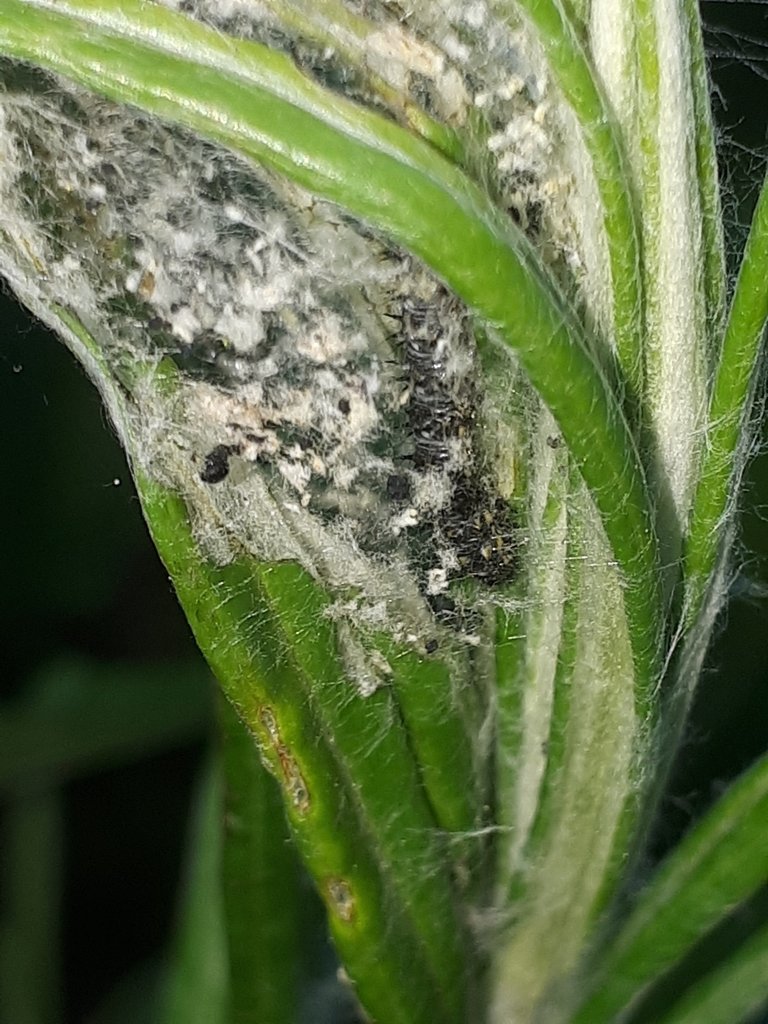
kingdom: Animalia
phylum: Arthropoda
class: Insecta
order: Lepidoptera
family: Nymphalidae
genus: Vanessa
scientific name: Vanessa virginiensis
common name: American Lady
